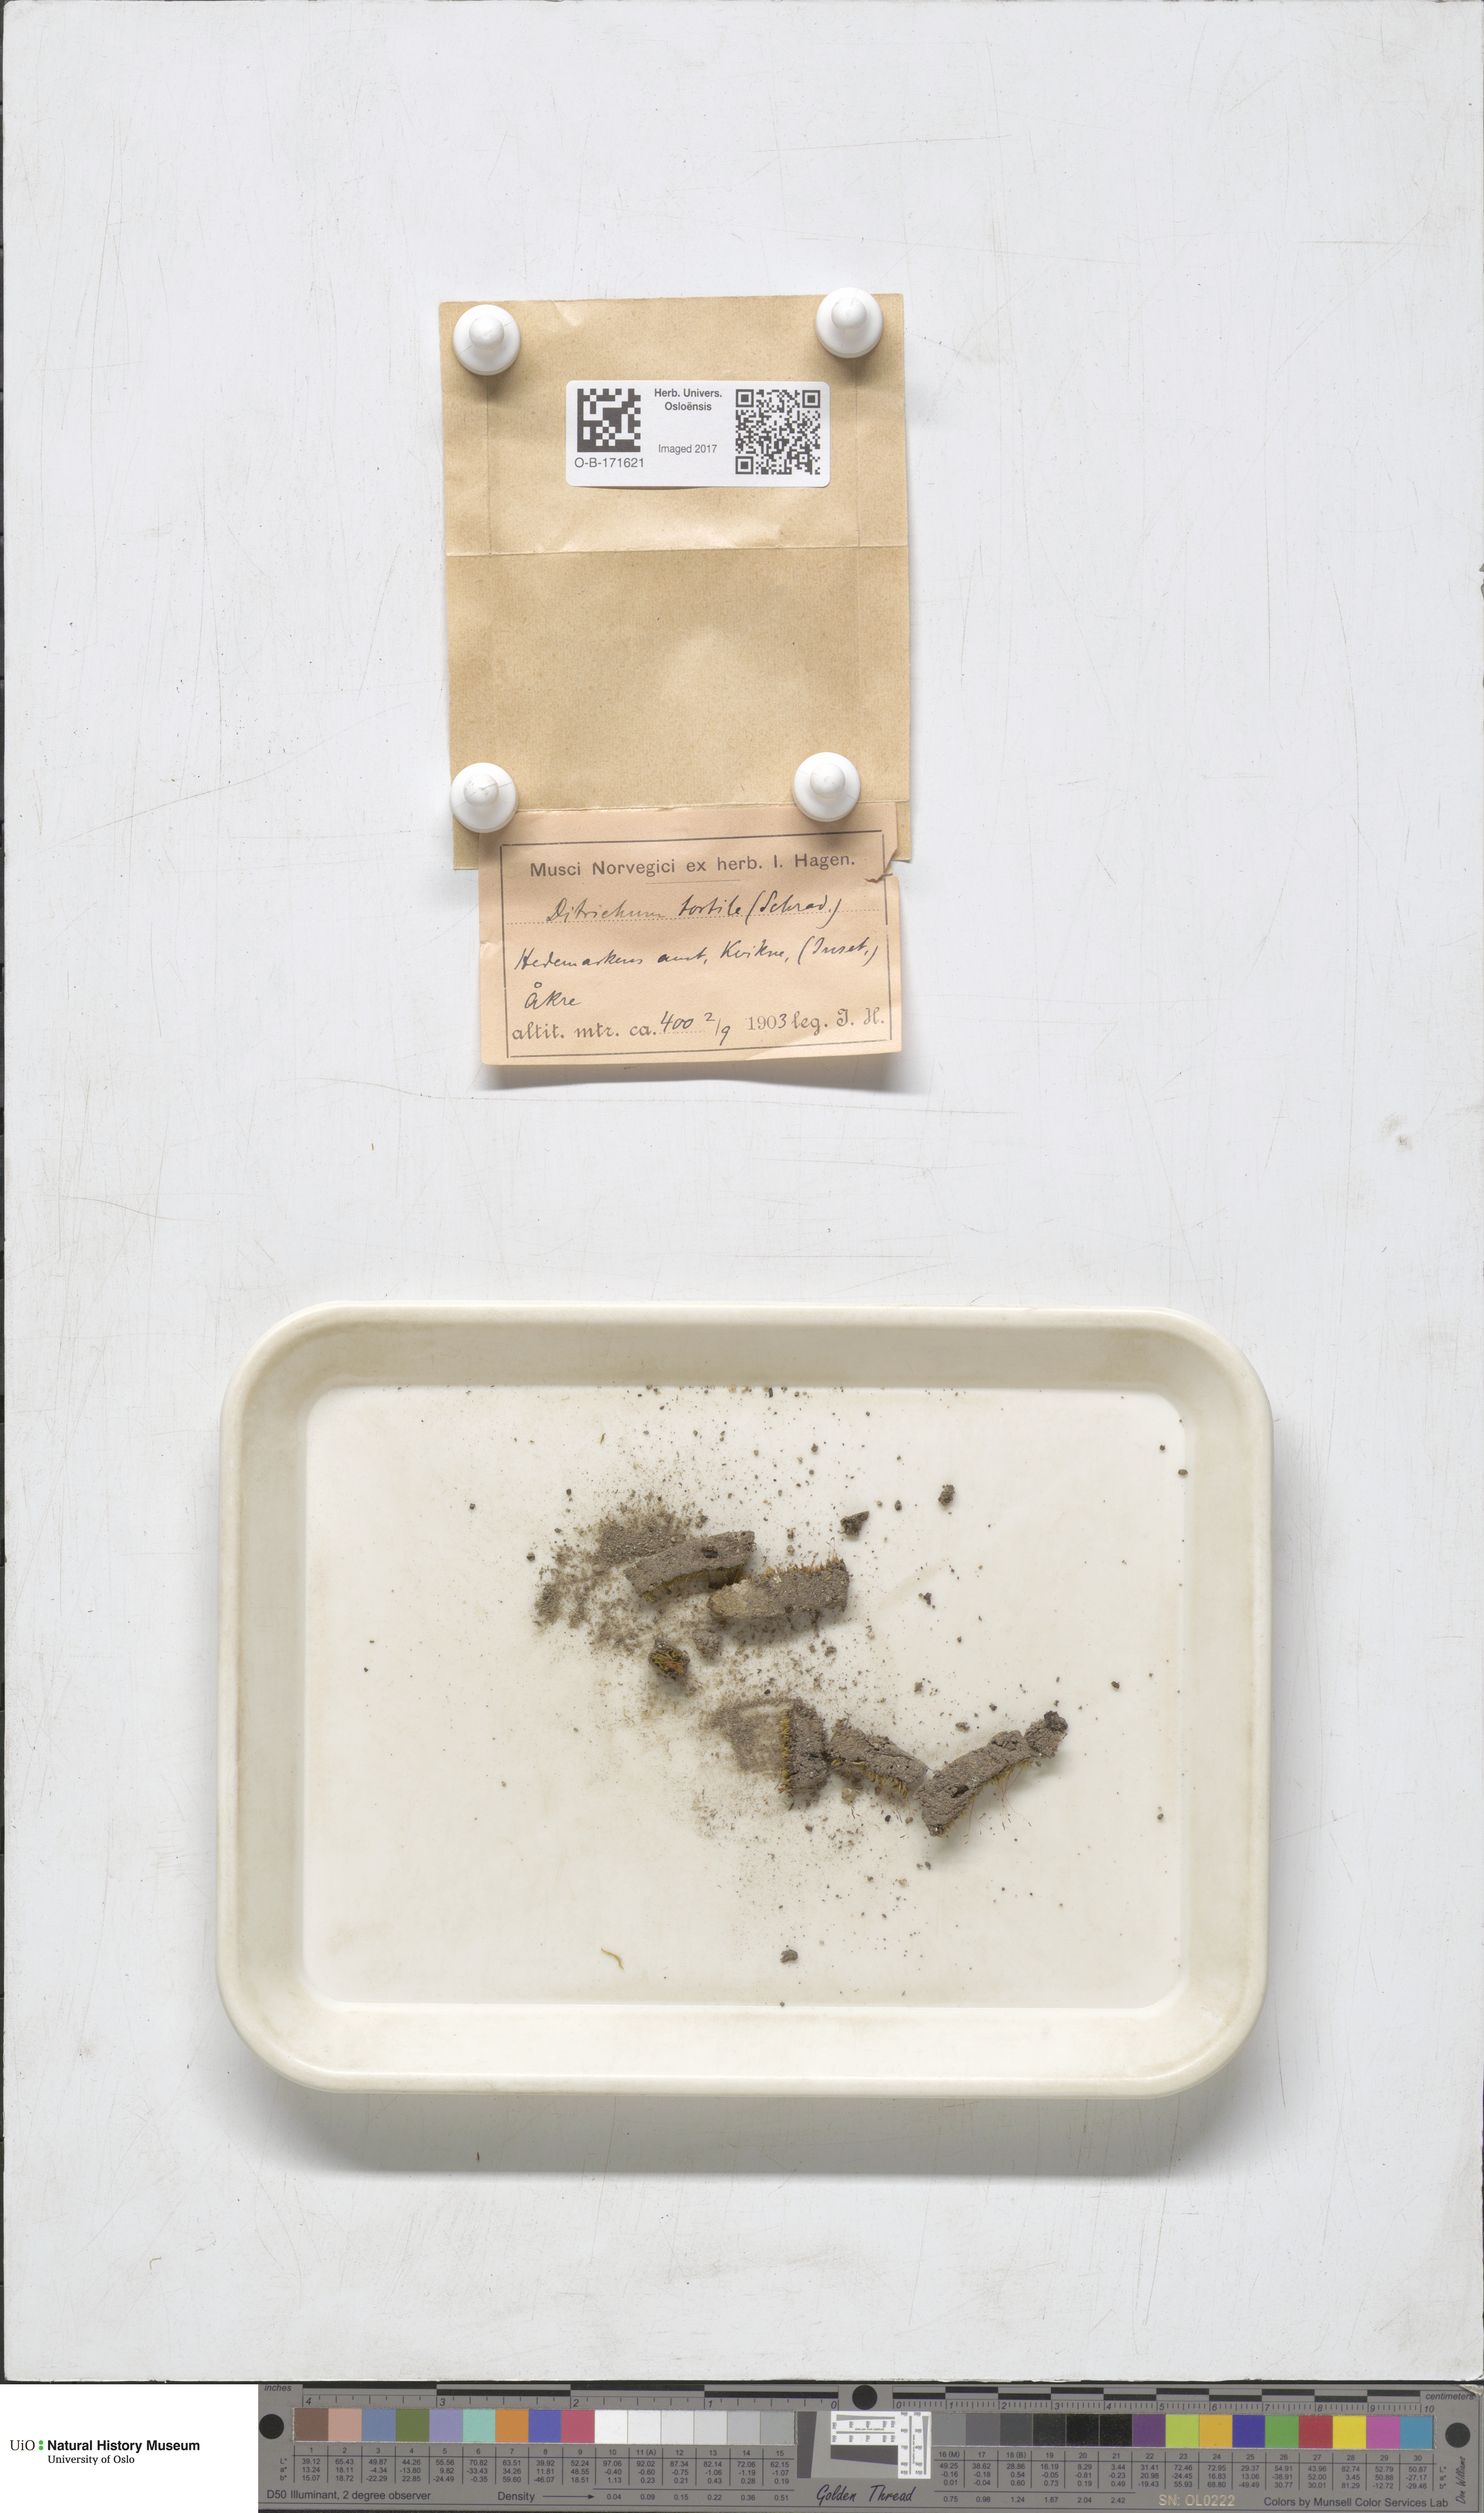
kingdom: Plantae
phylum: Bryophyta
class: Bryopsida
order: Dicranales
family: Ditrichaceae
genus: Ditrichum
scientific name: Ditrichum pusillum
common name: Brown cow-hair moss
